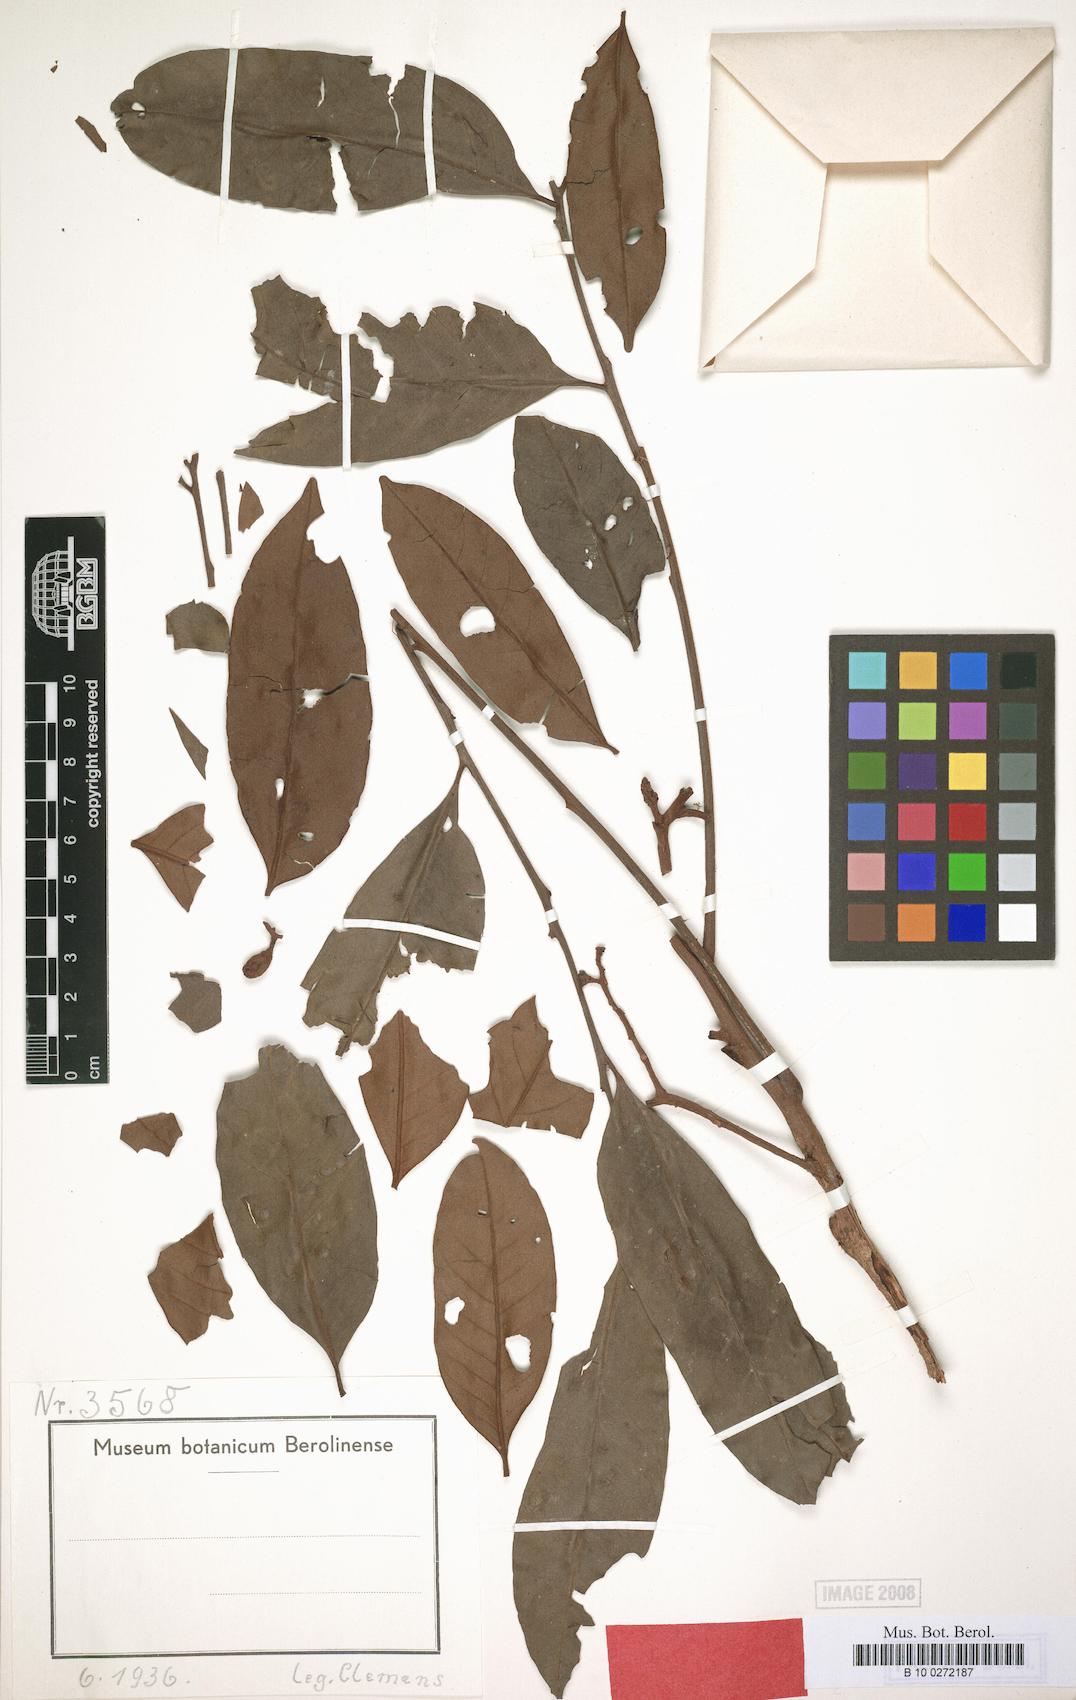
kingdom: Plantae
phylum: Tracheophyta
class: Magnoliopsida
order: Sapindales
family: Meliaceae
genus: Aglaia
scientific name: Aglaia subcuprea
